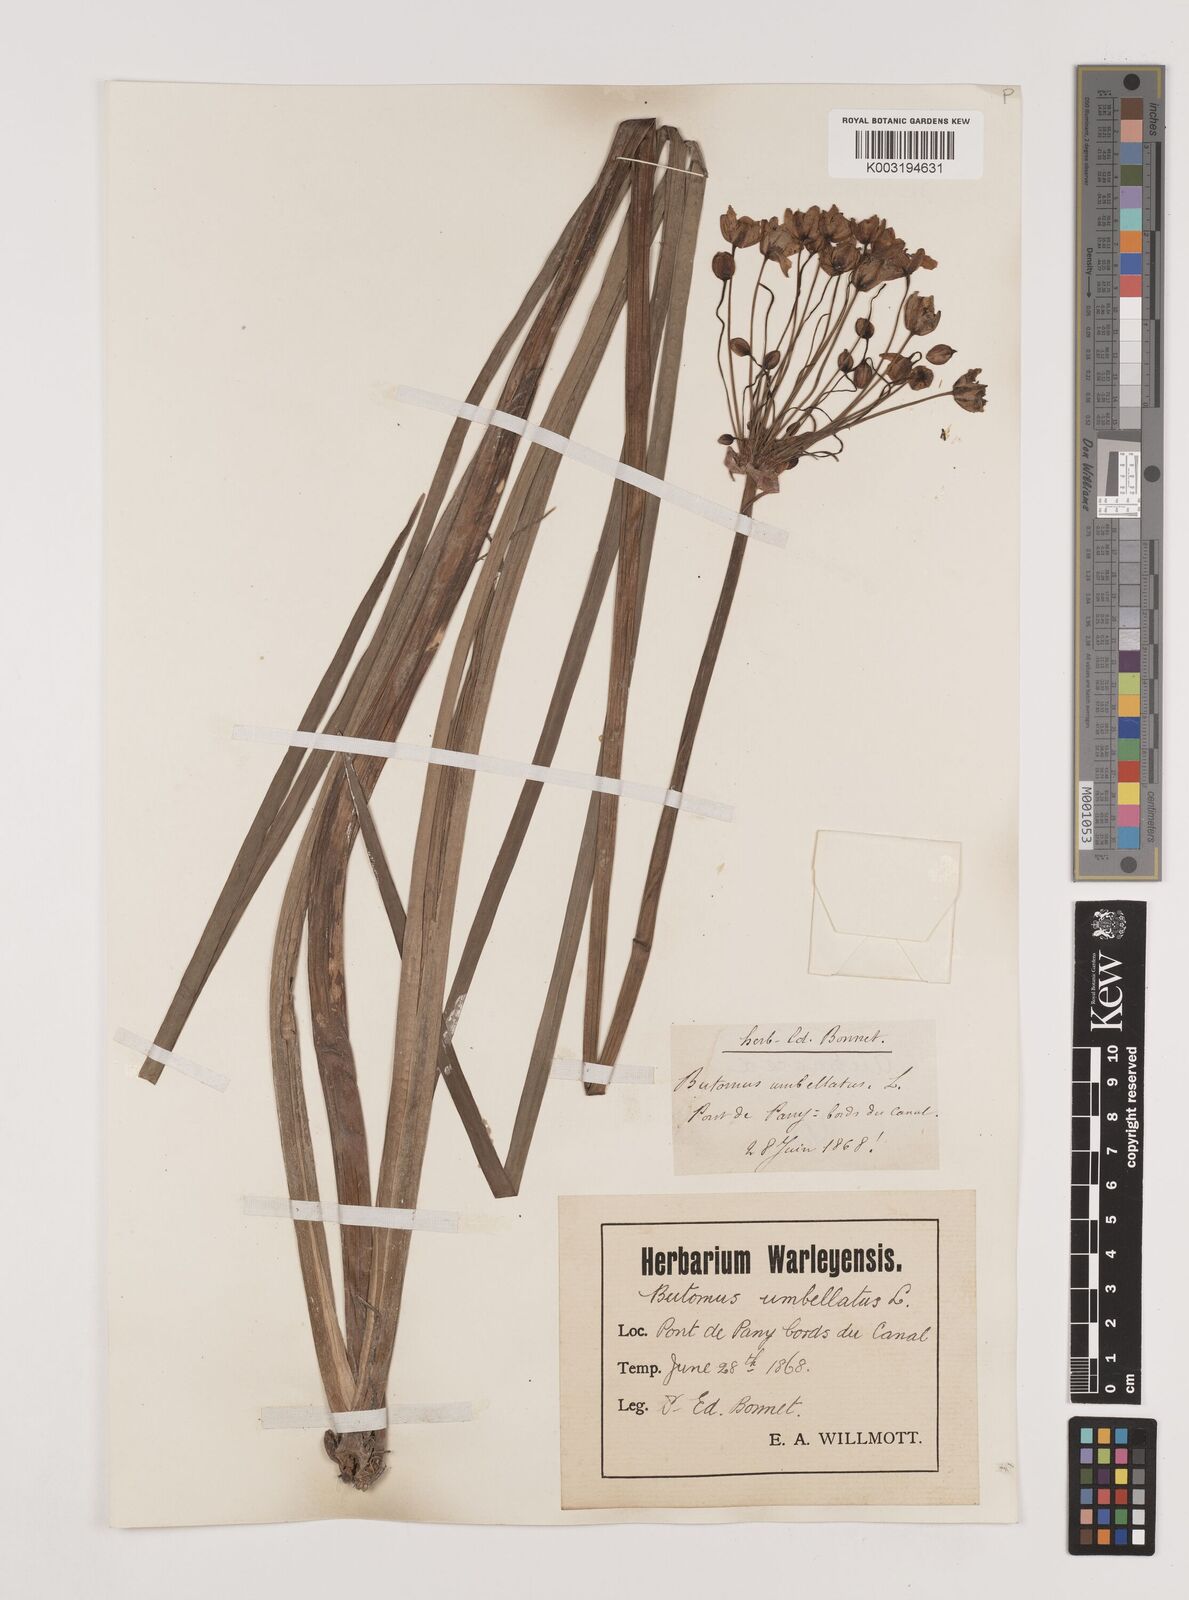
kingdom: Plantae
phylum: Tracheophyta
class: Liliopsida
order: Alismatales
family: Butomaceae
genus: Butomus
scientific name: Butomus umbellatus
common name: Flowering-rush
